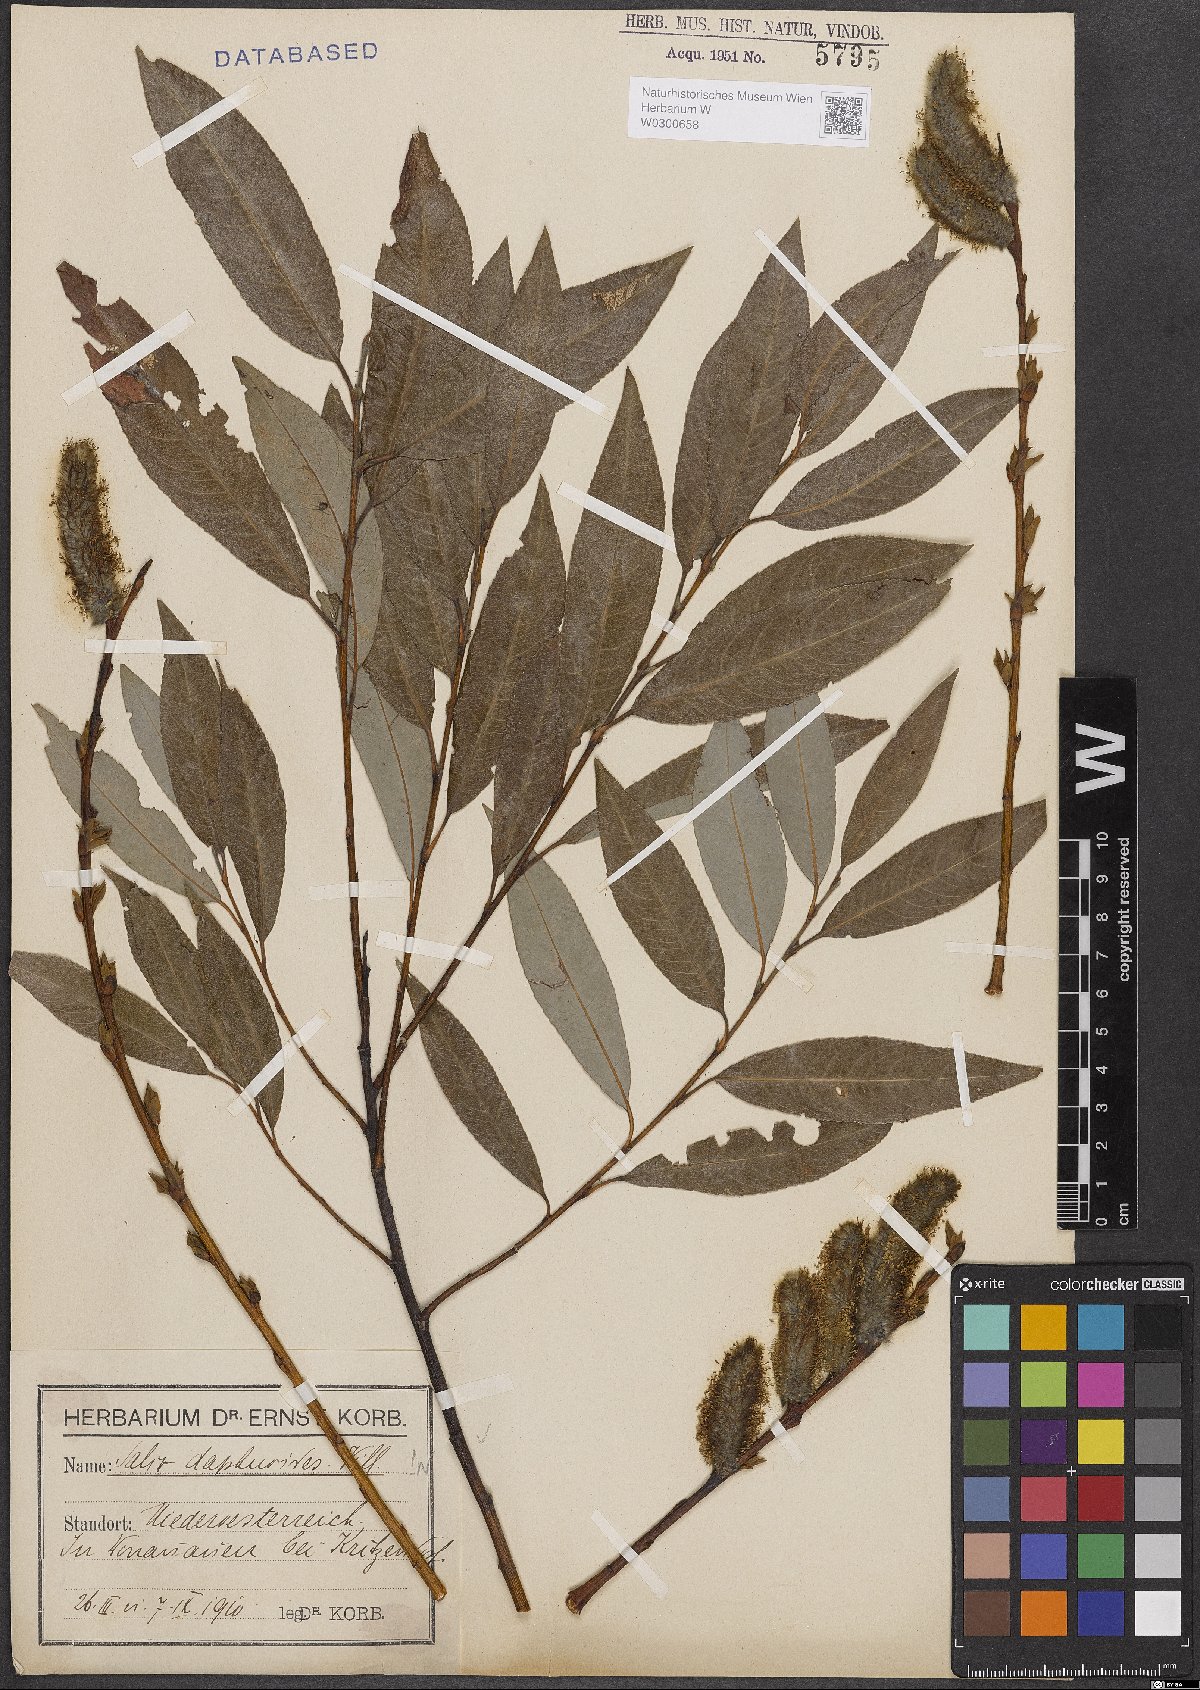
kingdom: Plantae
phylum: Tracheophyta
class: Magnoliopsida
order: Malpighiales
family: Salicaceae
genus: Salix
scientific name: Salix daphnoides
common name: European violet-willow
